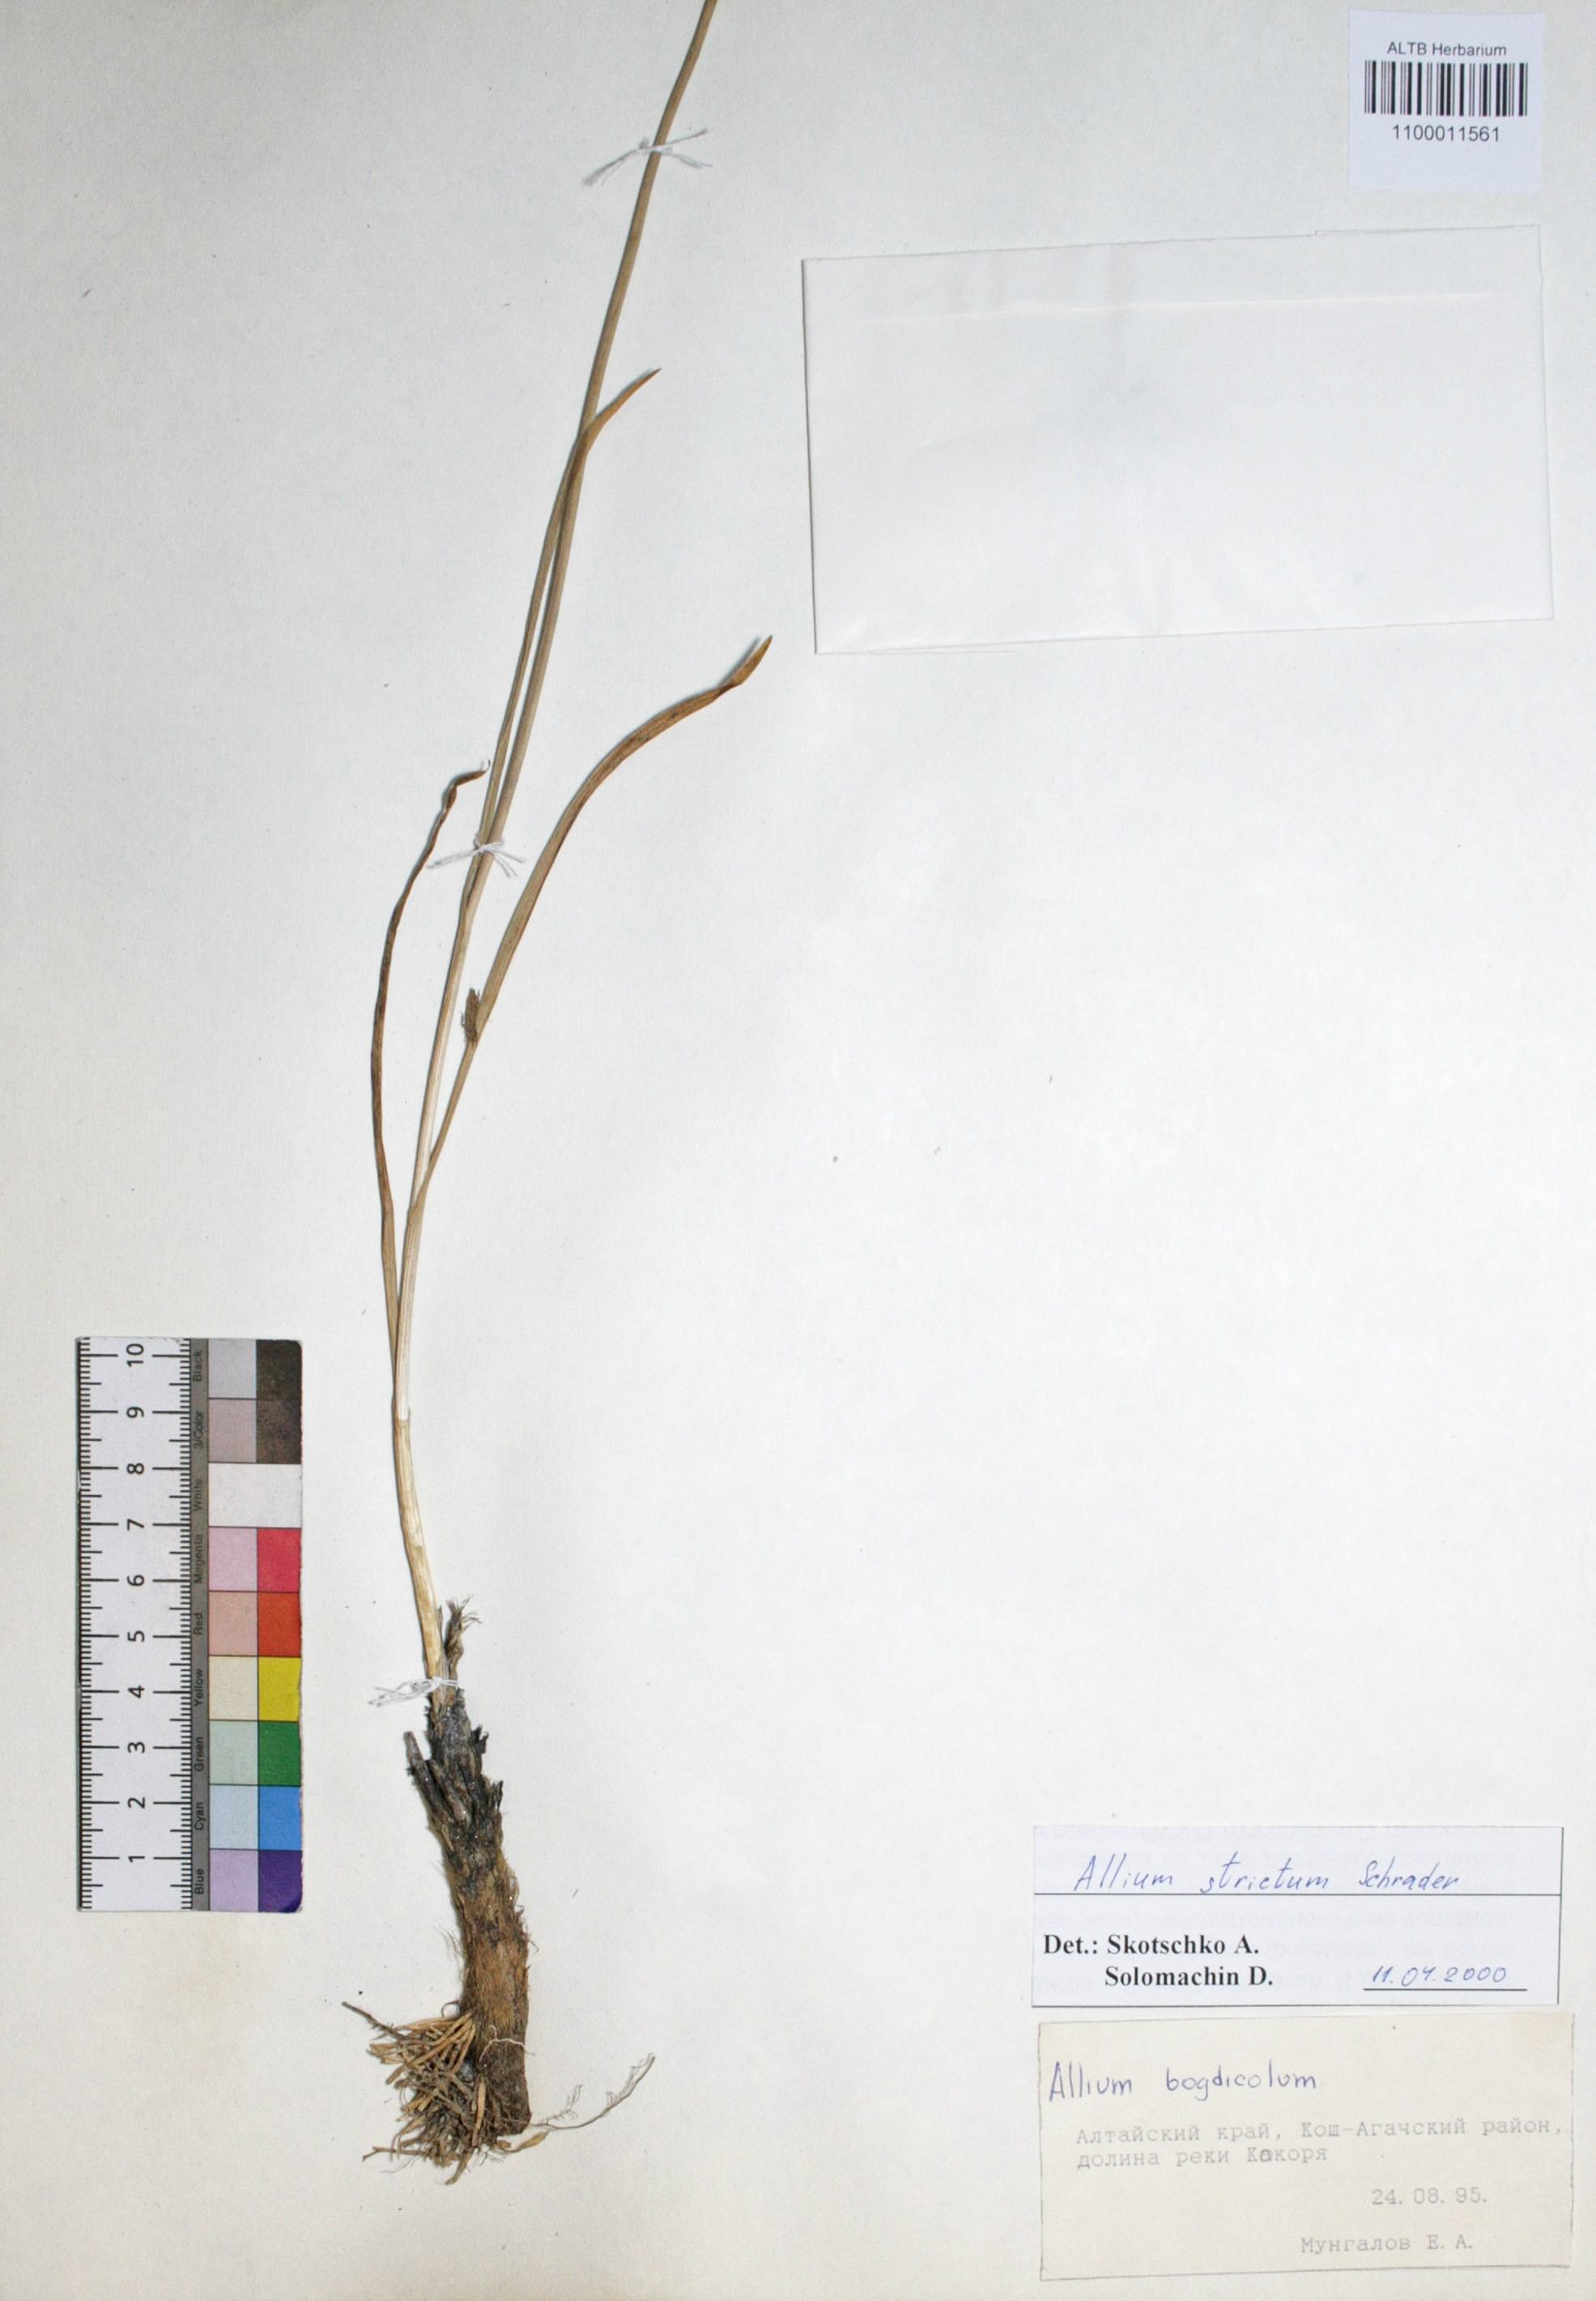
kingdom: Plantae
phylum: Tracheophyta
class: Liliopsida
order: Asparagales
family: Amaryllidaceae
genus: Allium
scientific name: Allium schrenkii
